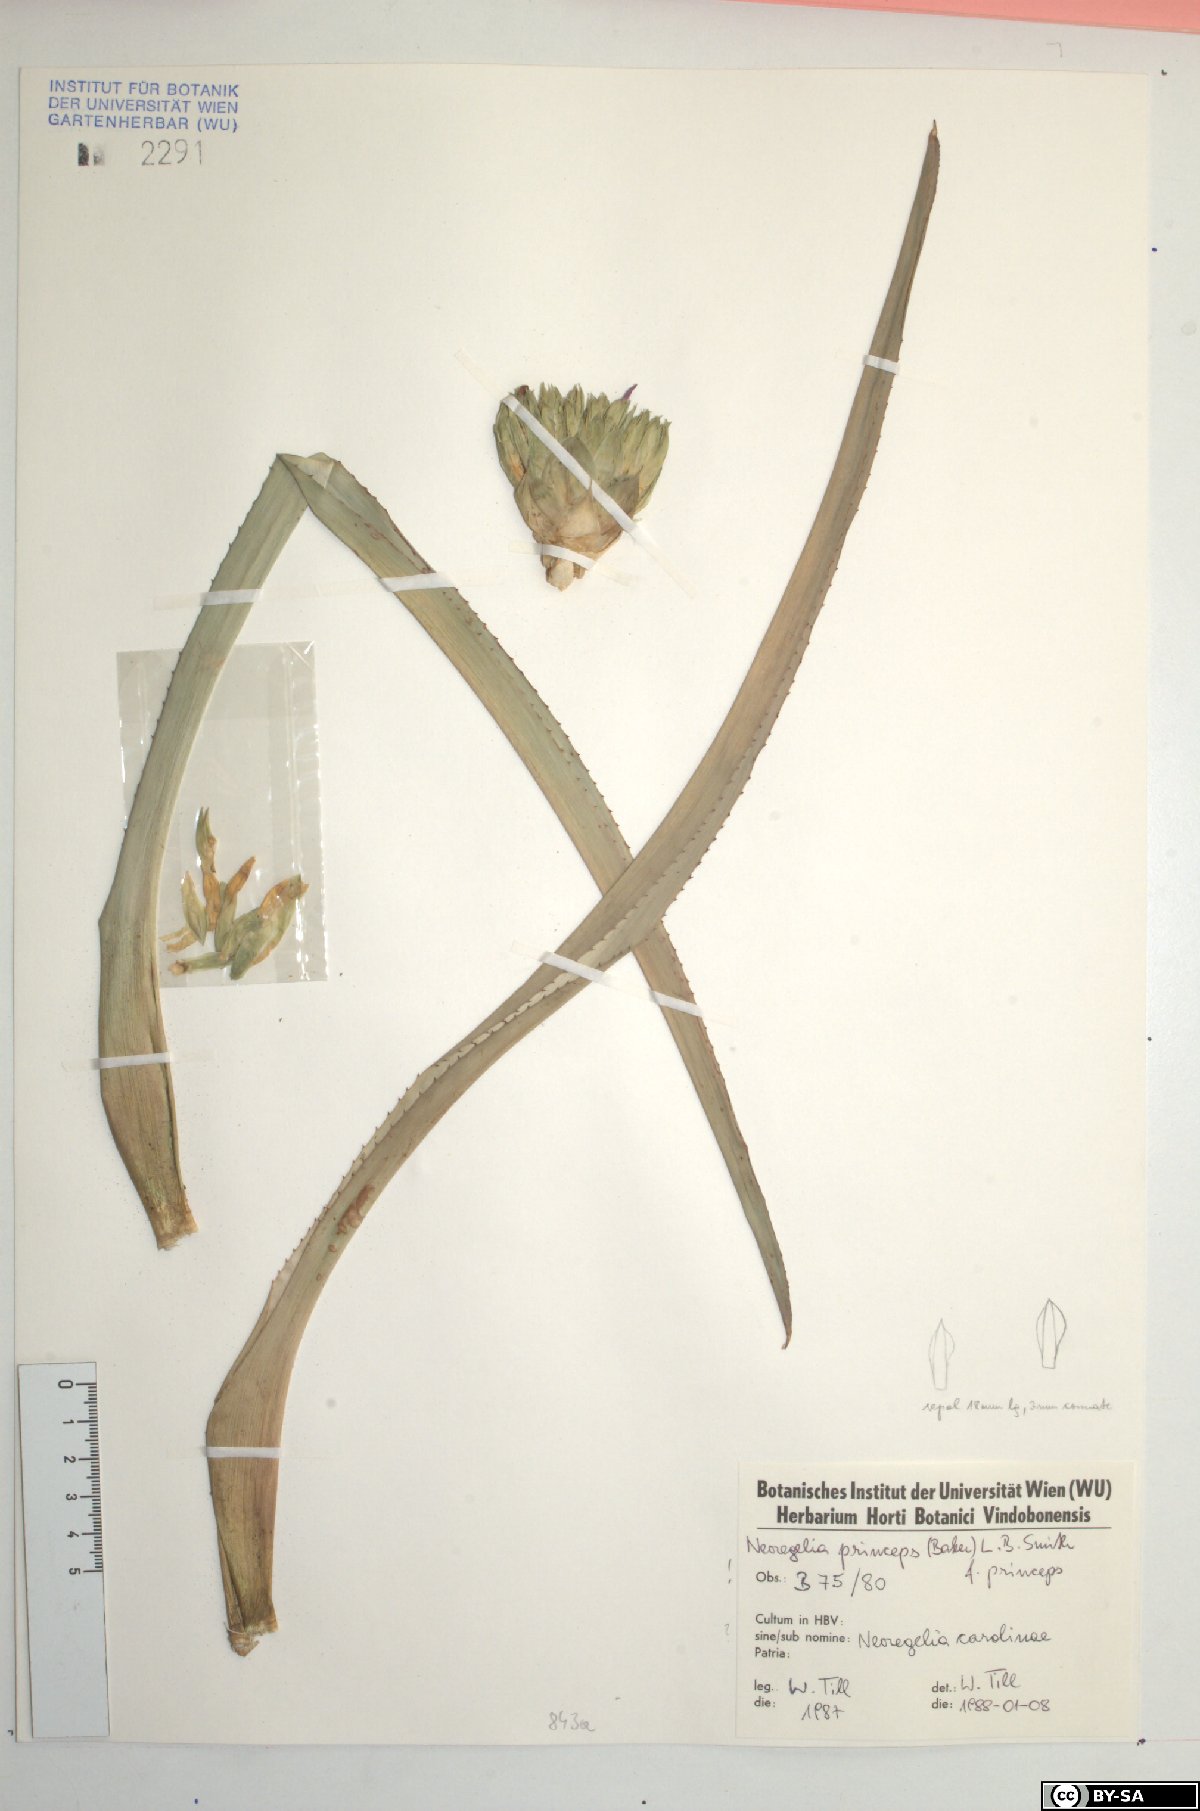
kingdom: Plantae
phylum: Tracheophyta
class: Liliopsida
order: Poales
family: Bromeliaceae
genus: Neoregelia
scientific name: Neoregelia princeps
